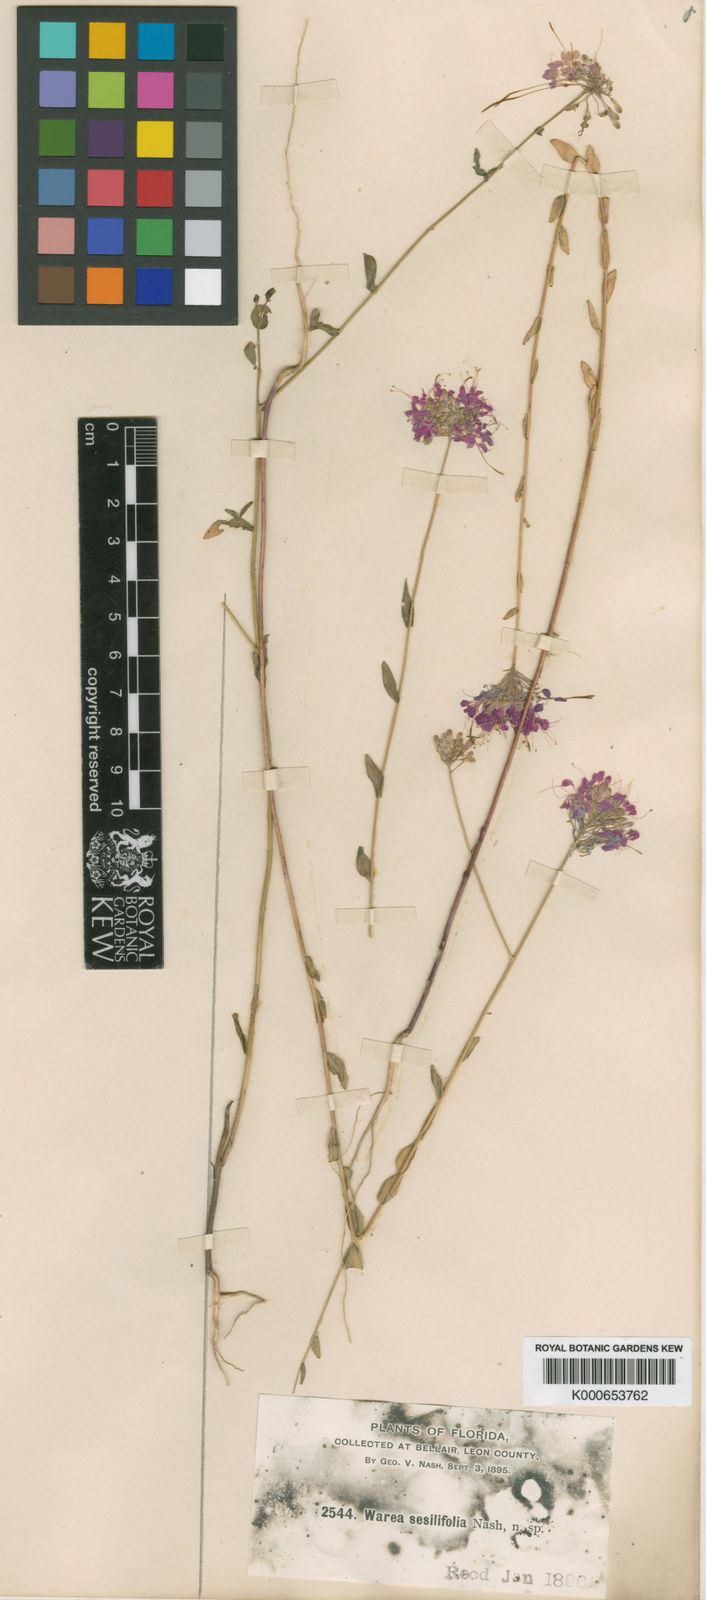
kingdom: Plantae
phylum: Tracheophyta
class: Magnoliopsida
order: Brassicales
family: Brassicaceae
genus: Warea
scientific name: Warea sessilifolia
